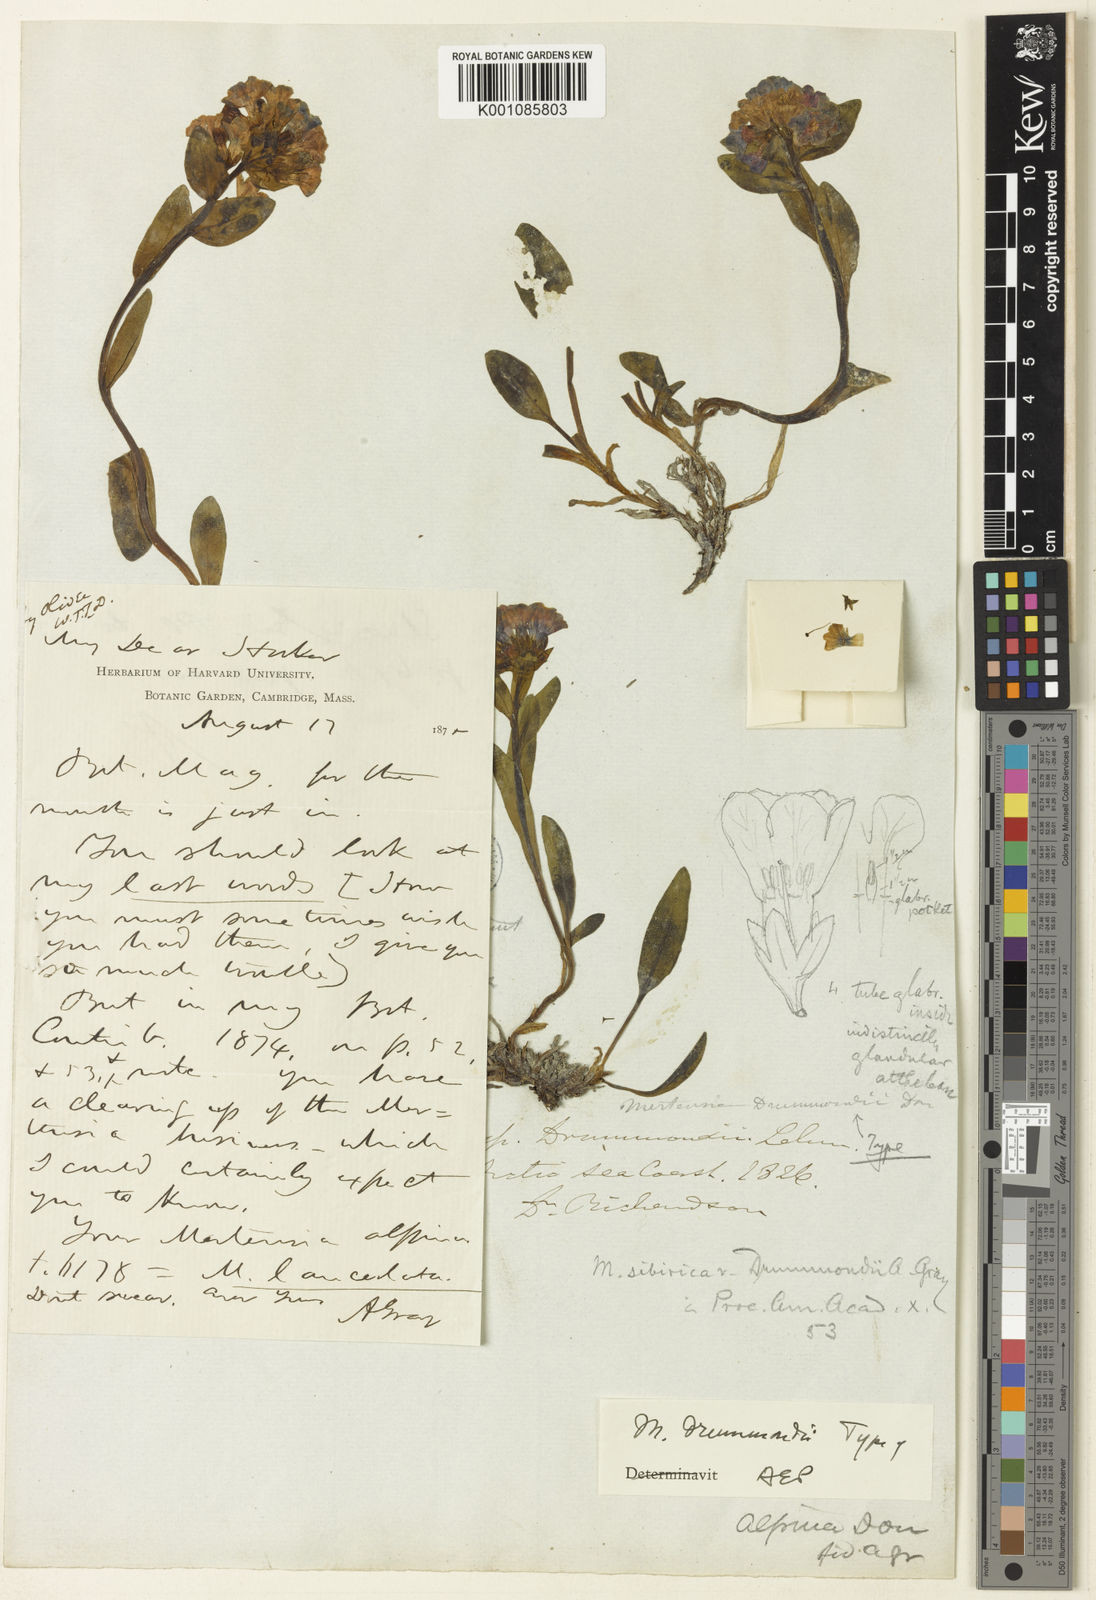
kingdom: Plantae
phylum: Tracheophyta
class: Magnoliopsida
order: Boraginales
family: Boraginaceae
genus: Mertensia
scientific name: Mertensia sibirica
